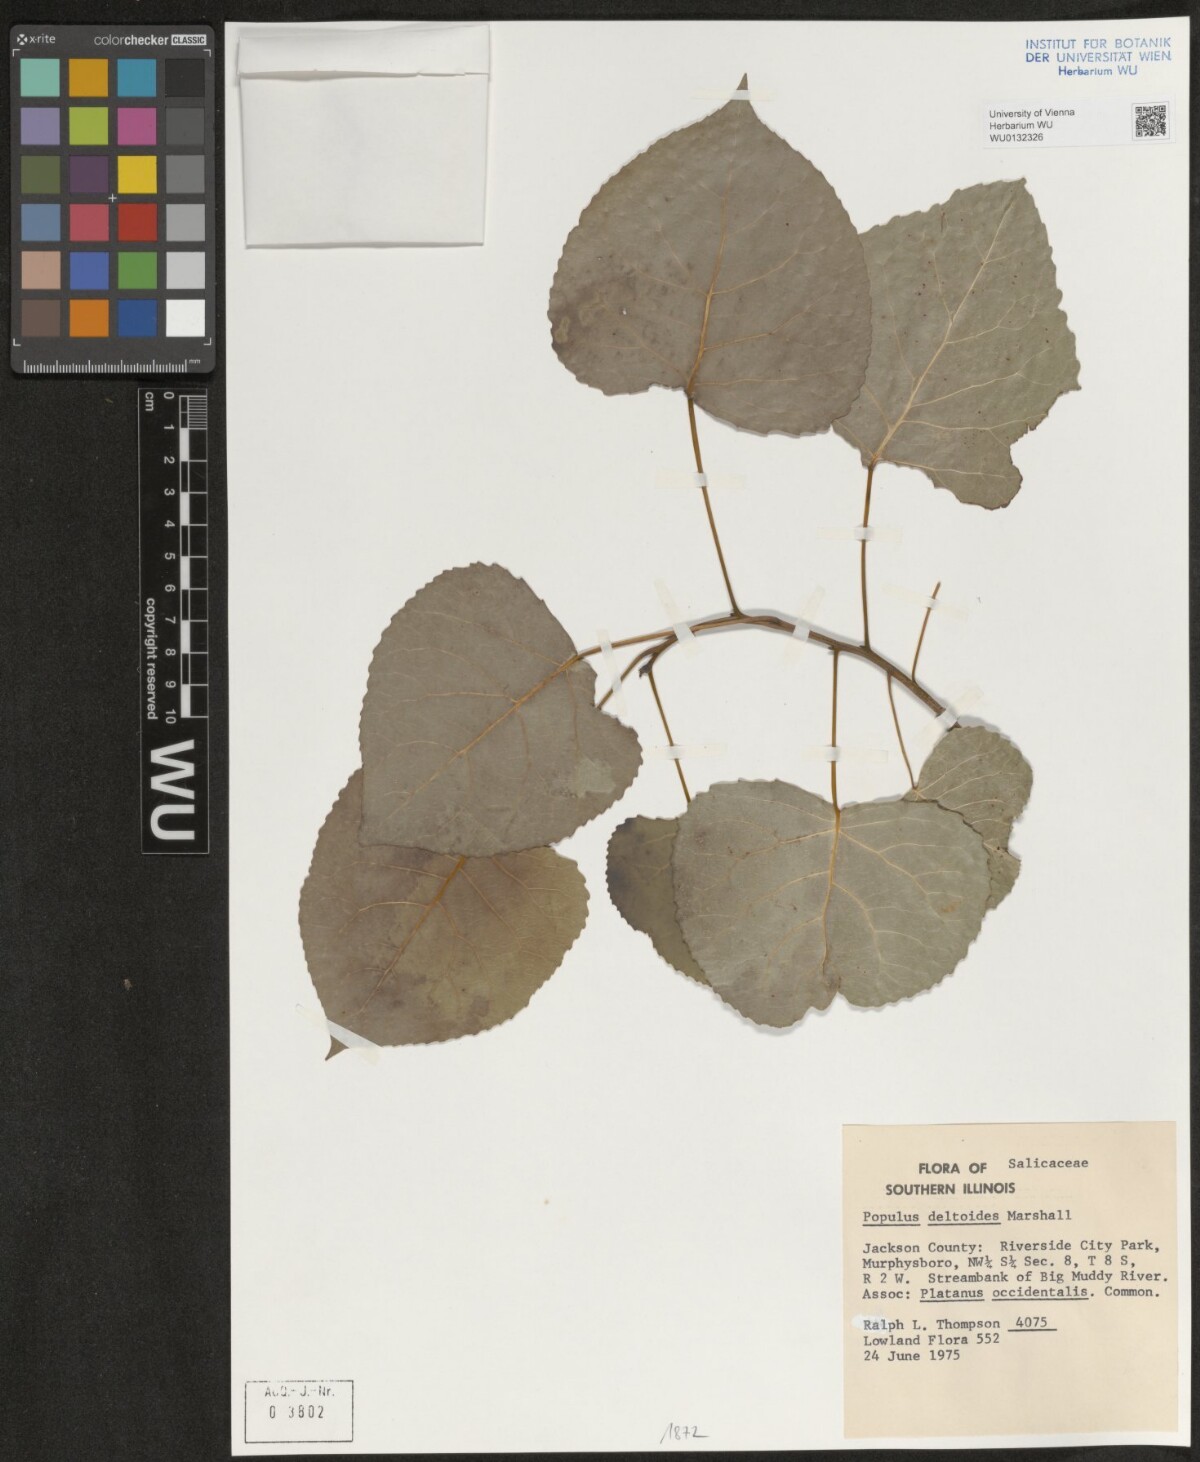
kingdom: Plantae
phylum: Tracheophyta
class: Magnoliopsida
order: Malpighiales
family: Salicaceae
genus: Populus
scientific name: Populus deltoides
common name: Eastern cottonwood
